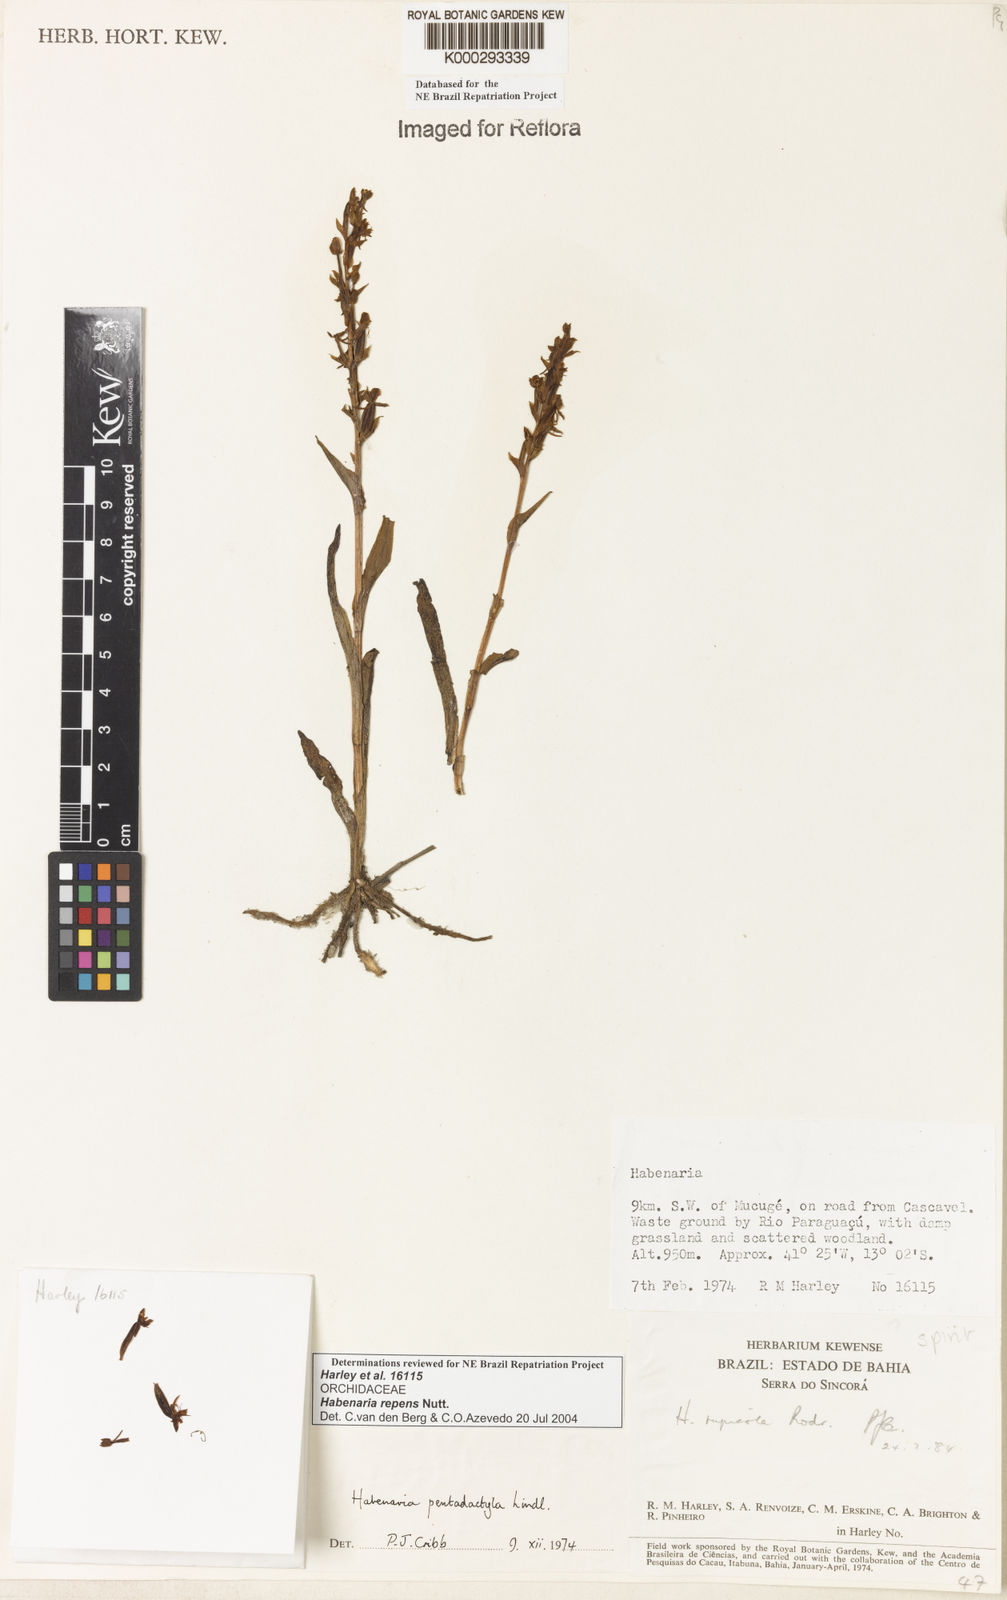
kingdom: Plantae
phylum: Tracheophyta
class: Liliopsida
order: Asparagales
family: Orchidaceae
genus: Habenaria
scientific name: Habenaria repens
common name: Water orchid
